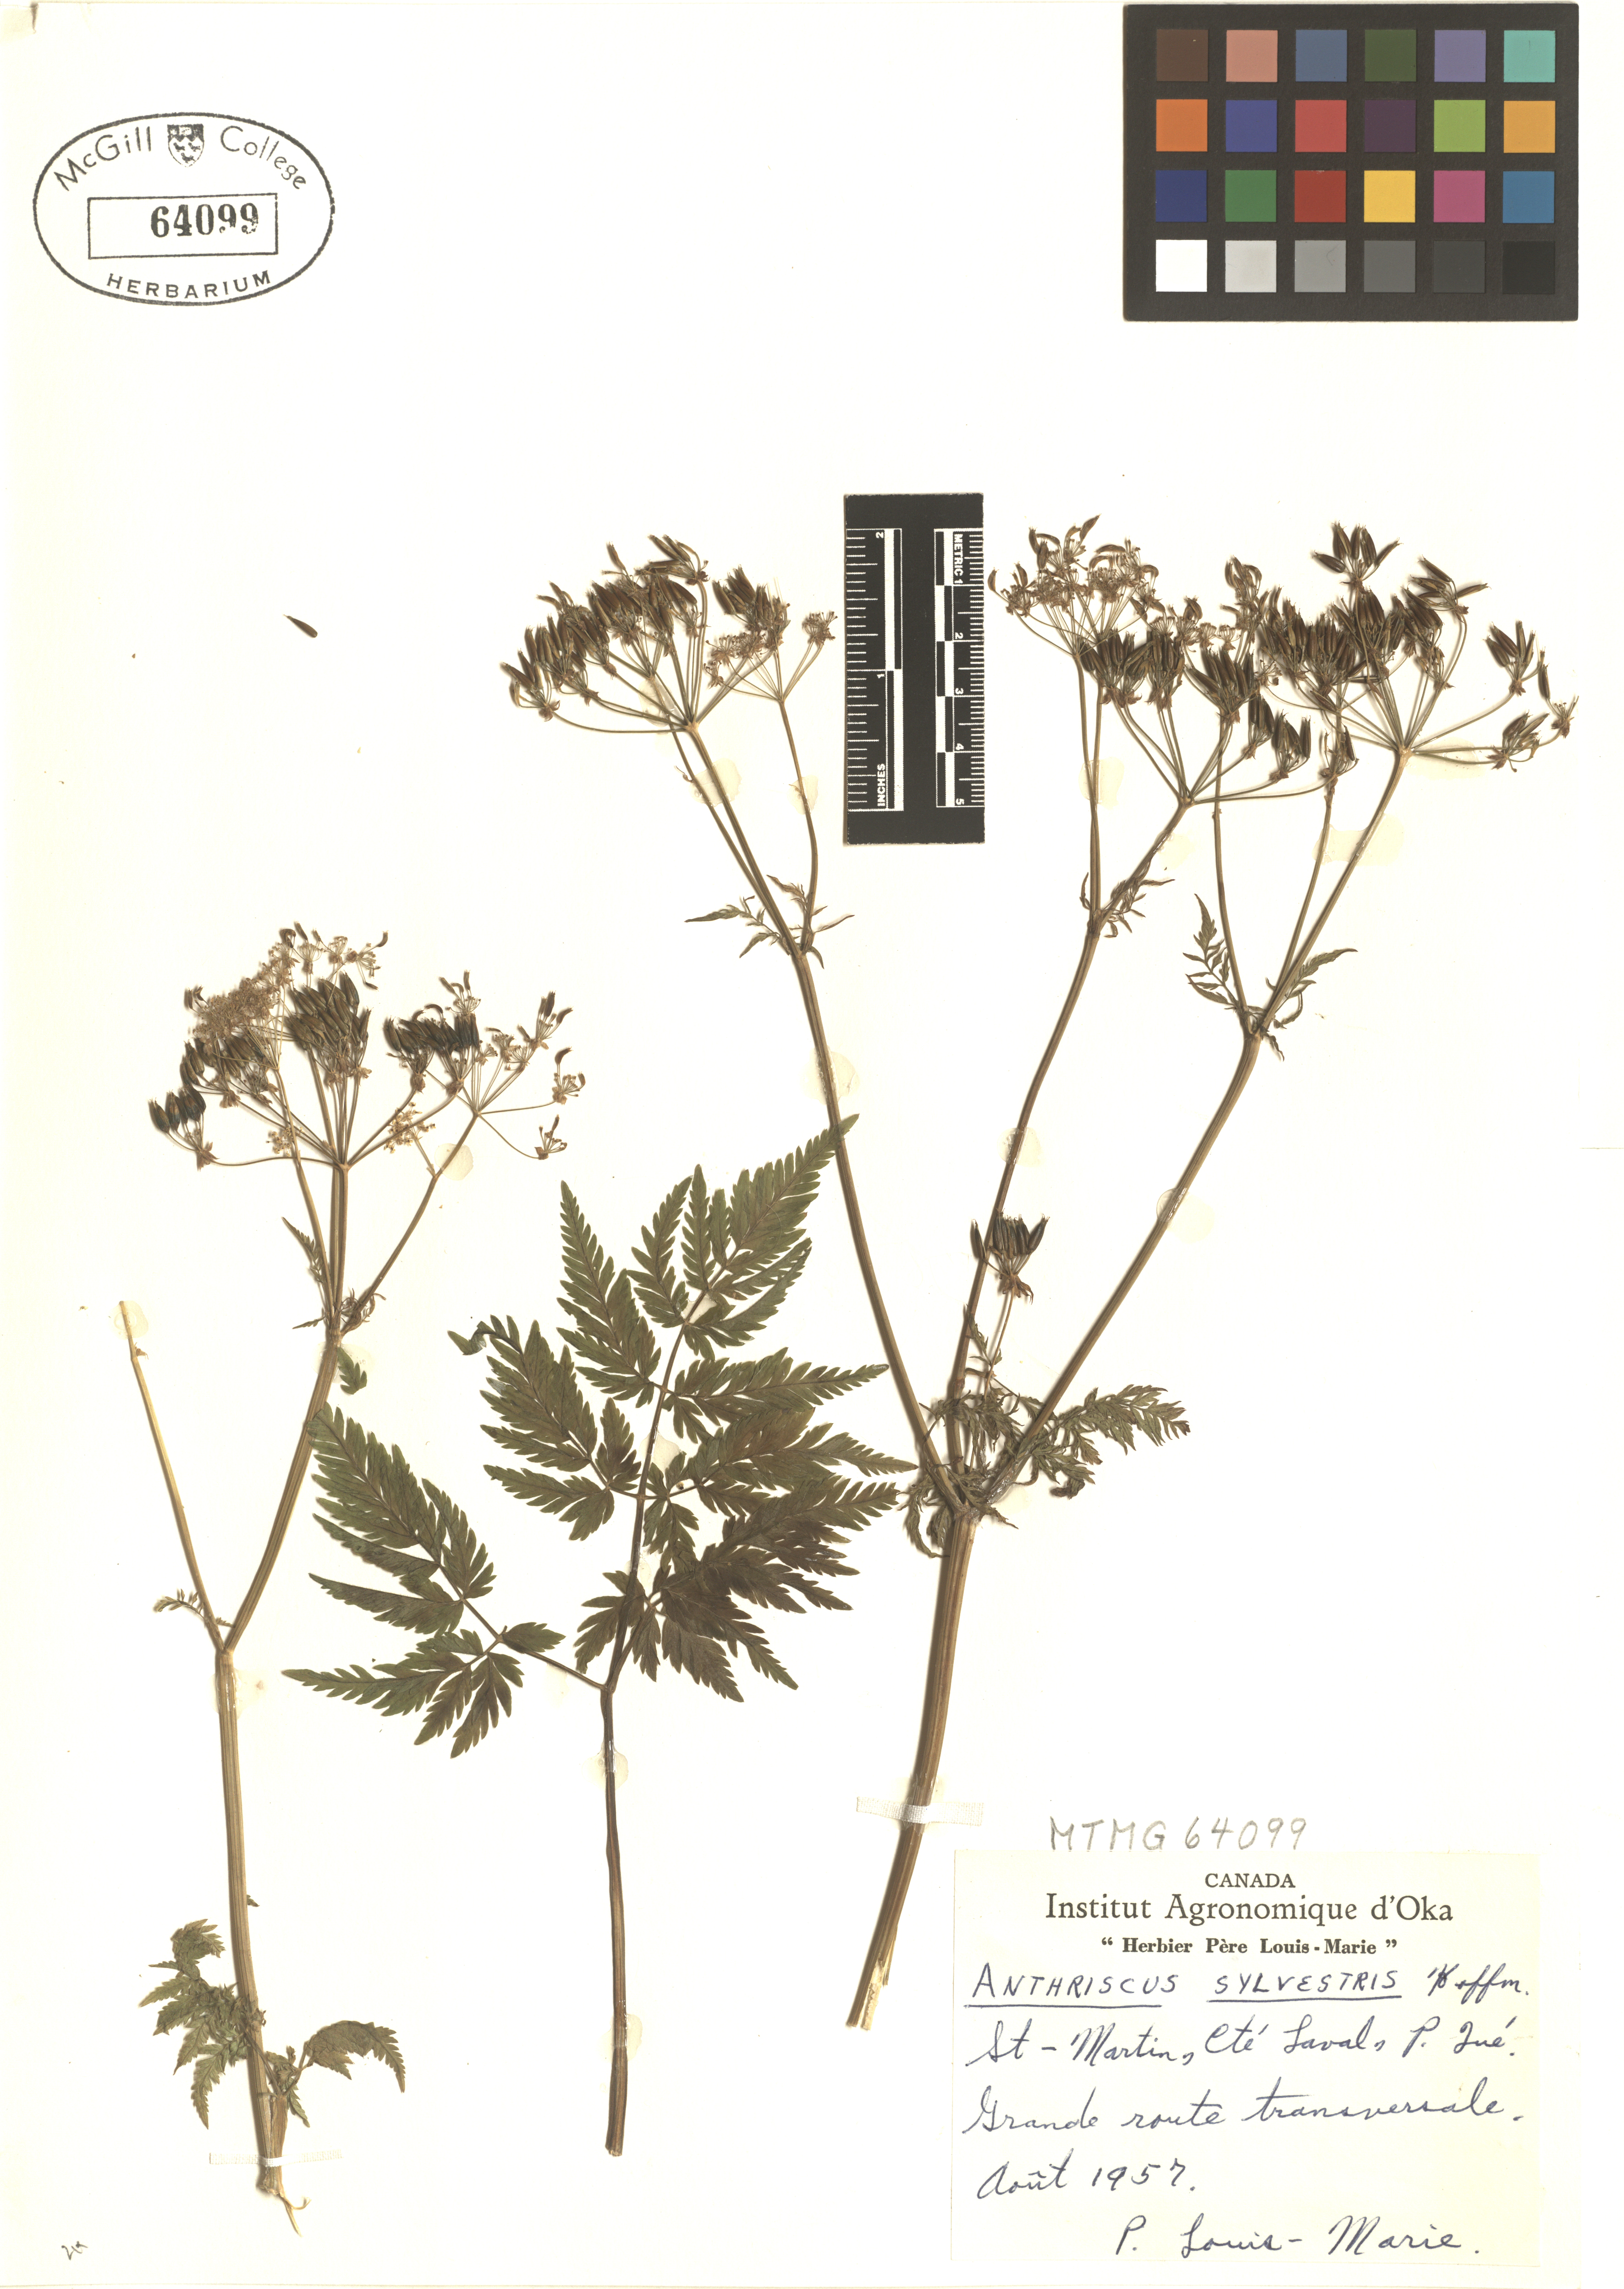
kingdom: Plantae
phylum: Tracheophyta
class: Magnoliopsida
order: Apiales
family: Apiaceae
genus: Anthriscus
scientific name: Anthriscus sylvestris
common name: Cow parsley
